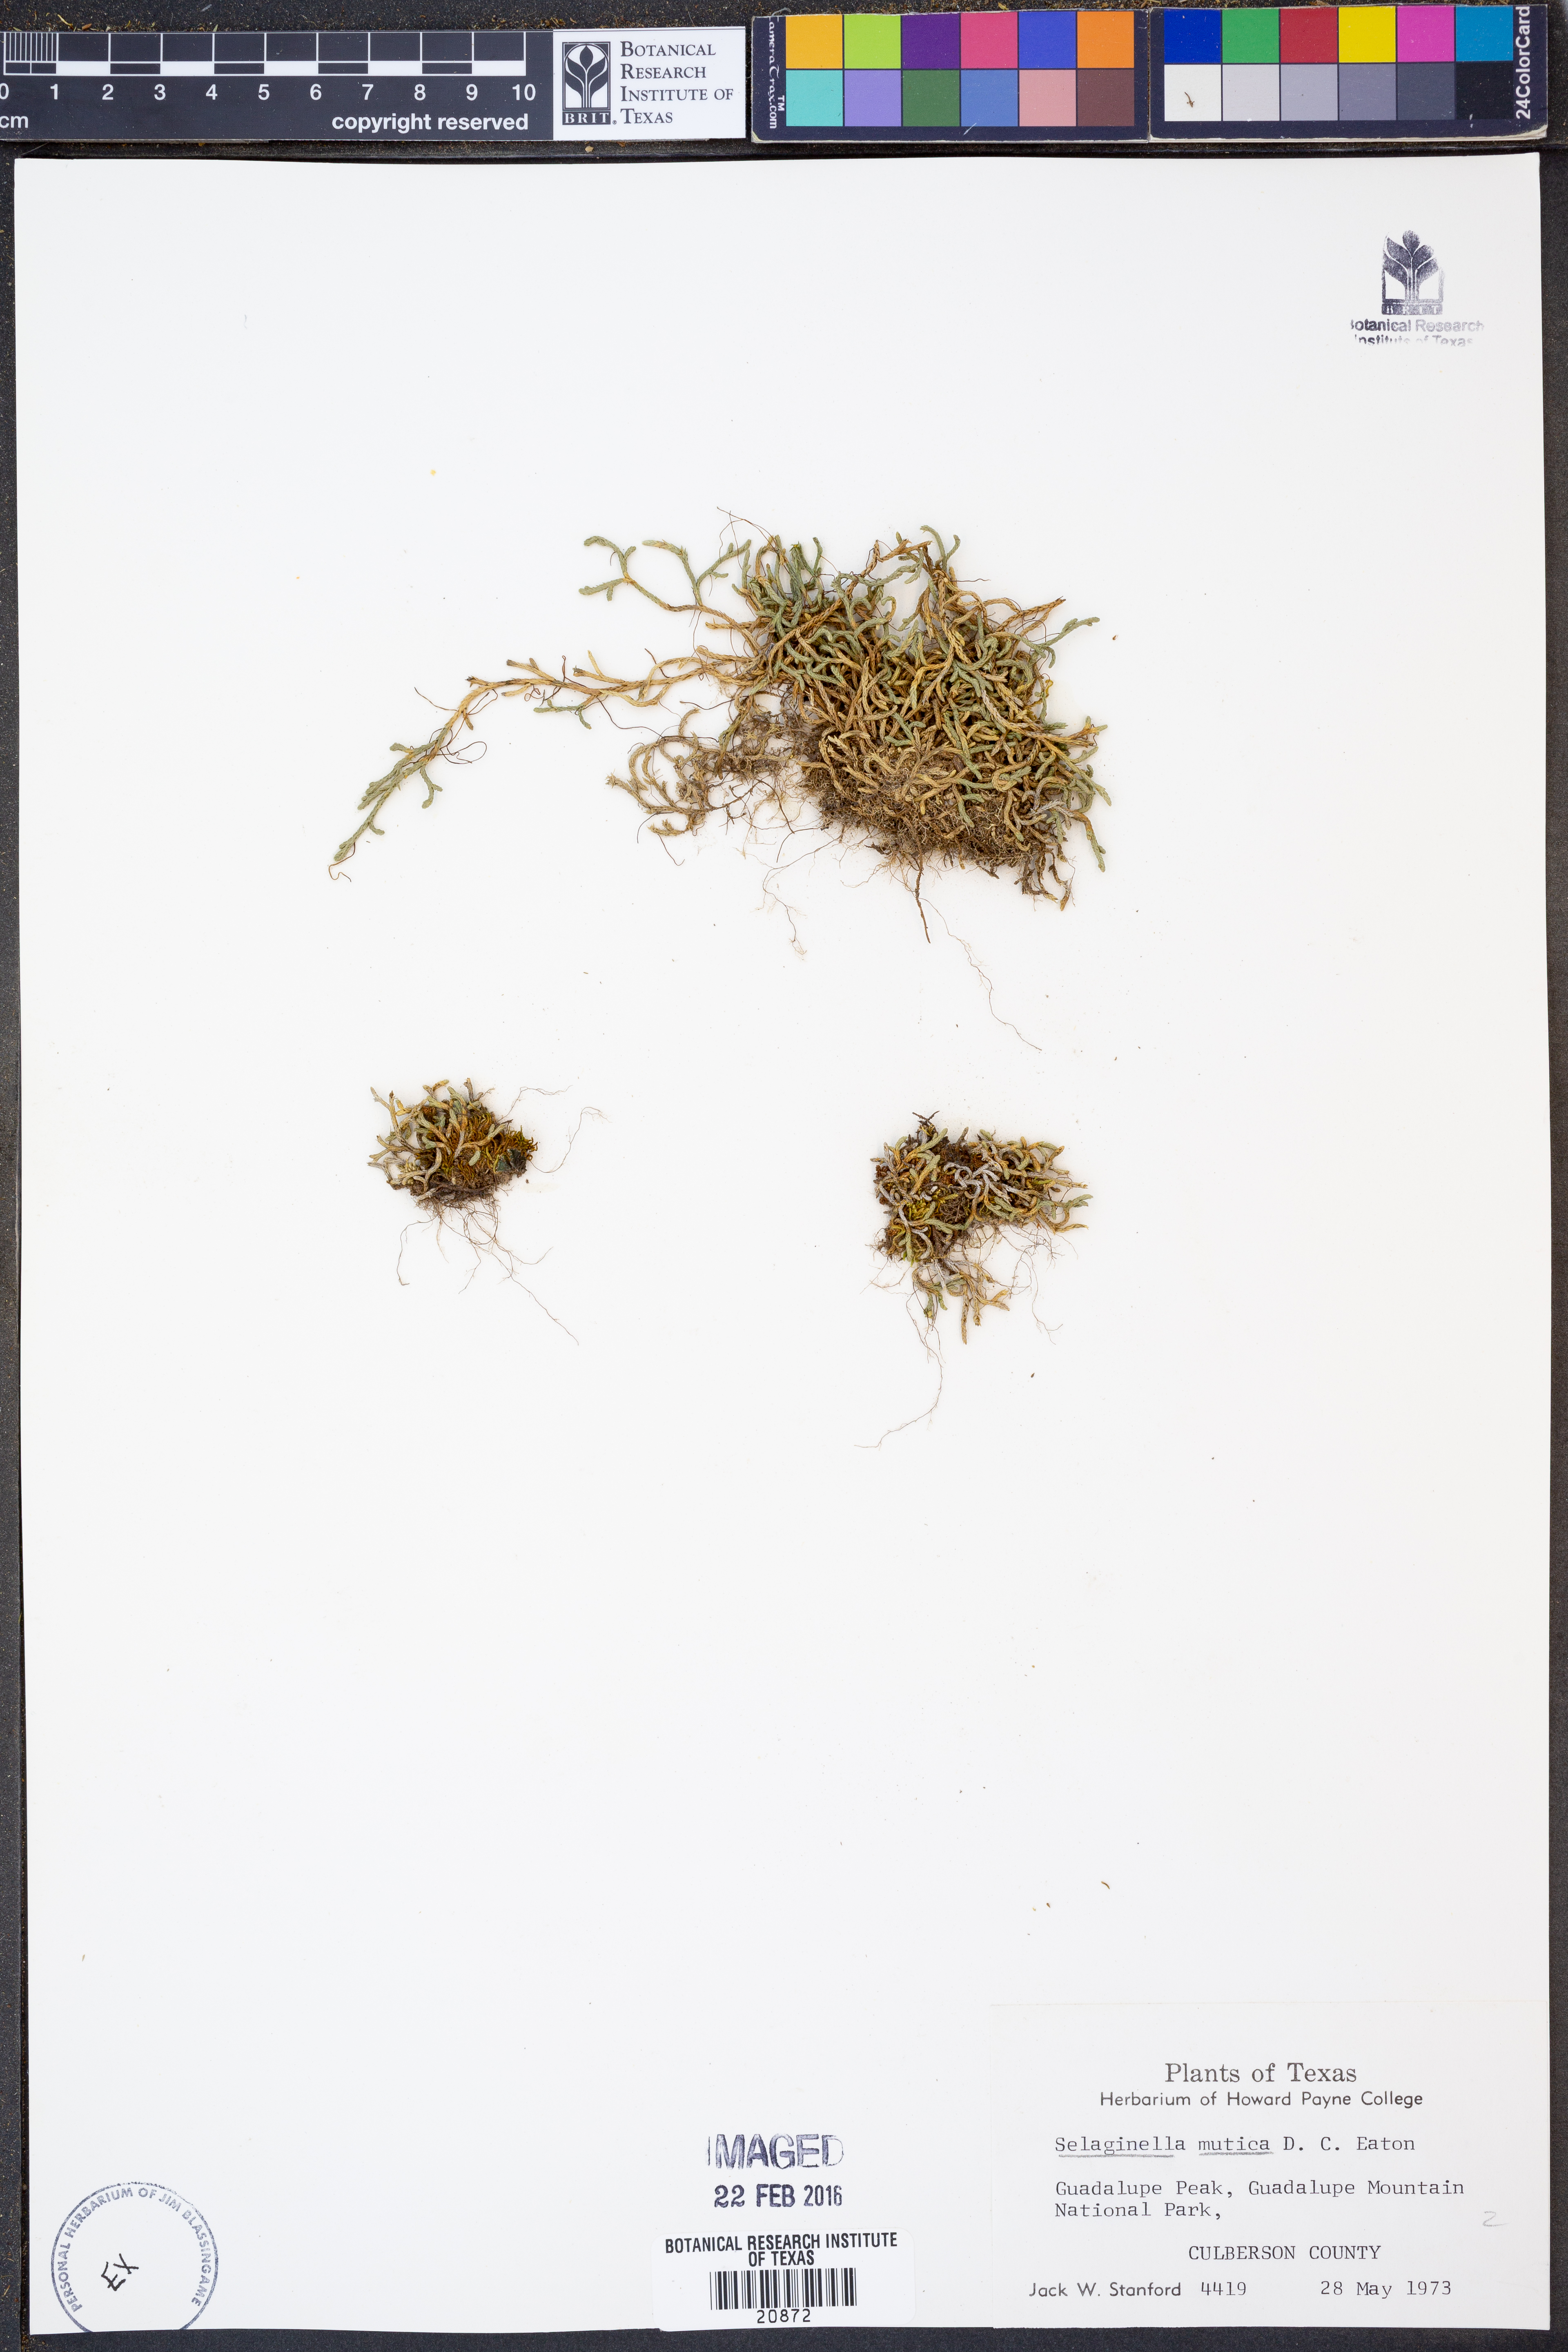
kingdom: Plantae
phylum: Tracheophyta
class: Lycopodiopsida
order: Selaginellales
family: Selaginellaceae
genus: Selaginella
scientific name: Selaginella mutica
